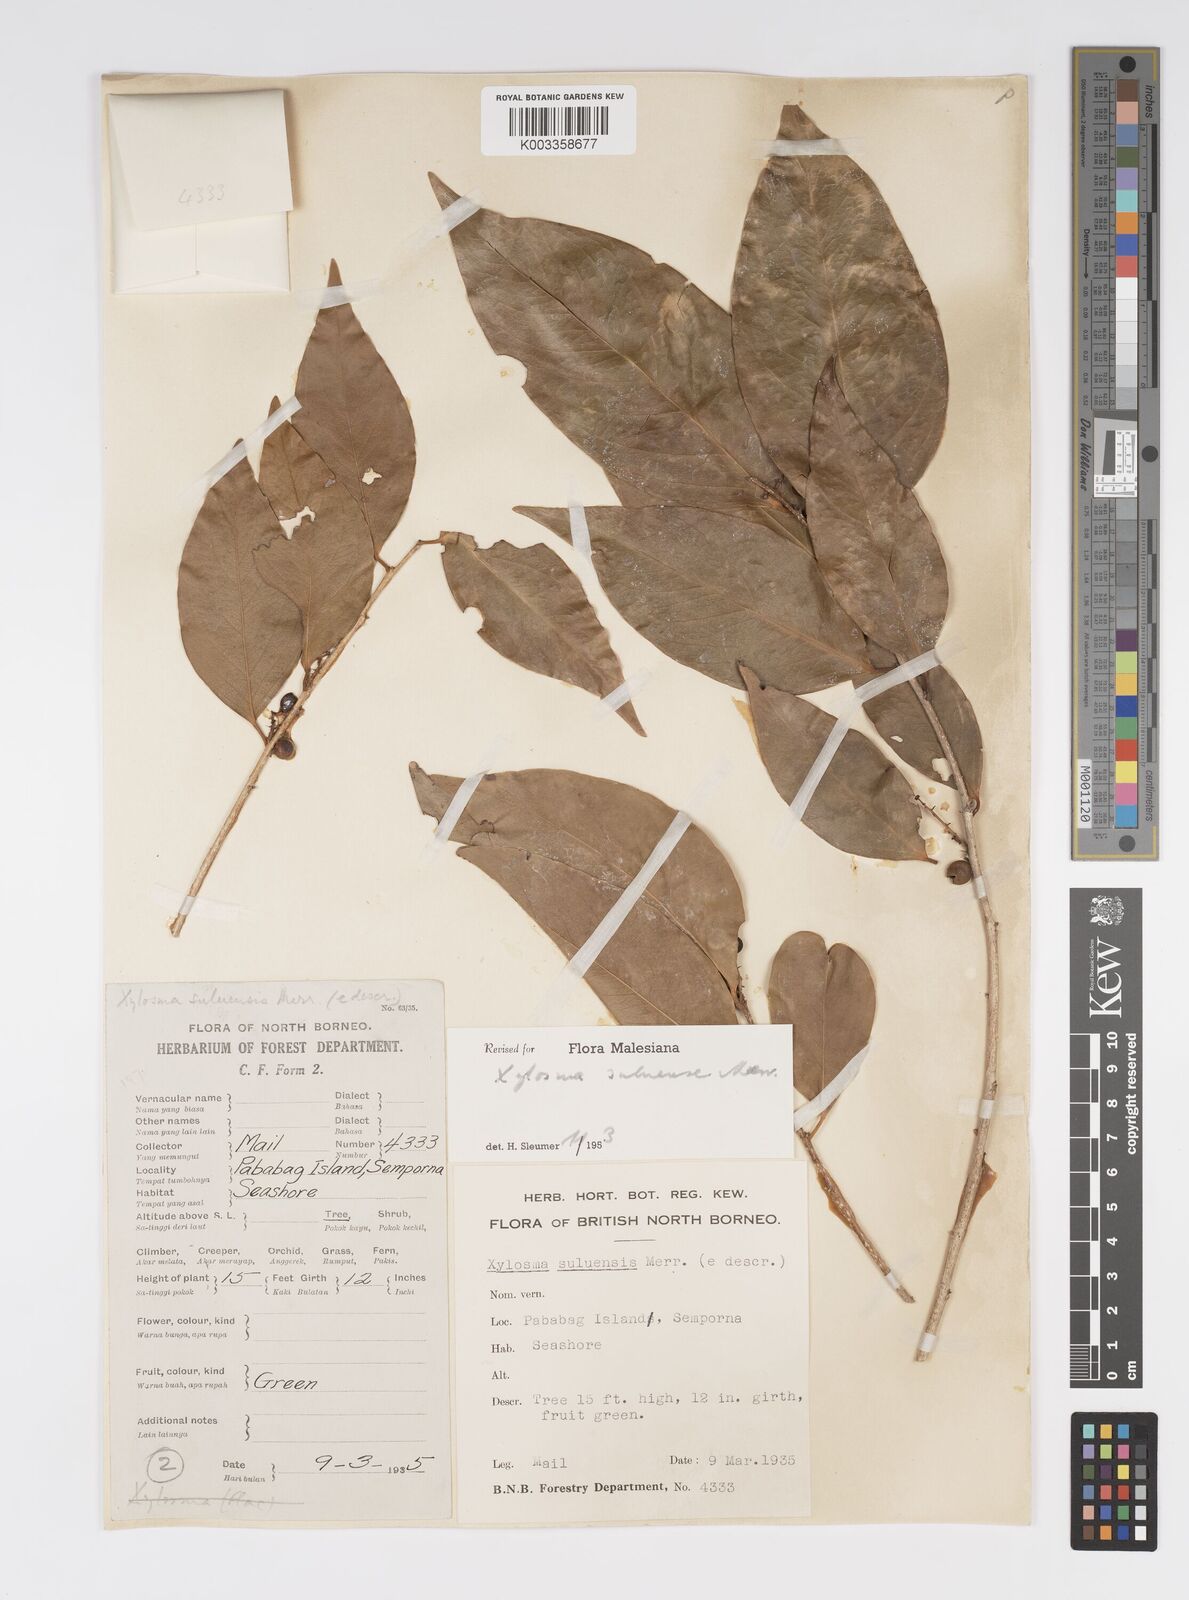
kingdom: Plantae
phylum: Tracheophyta
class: Magnoliopsida
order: Malpighiales
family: Salicaceae
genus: Xylosma
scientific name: Xylosma suluensis
